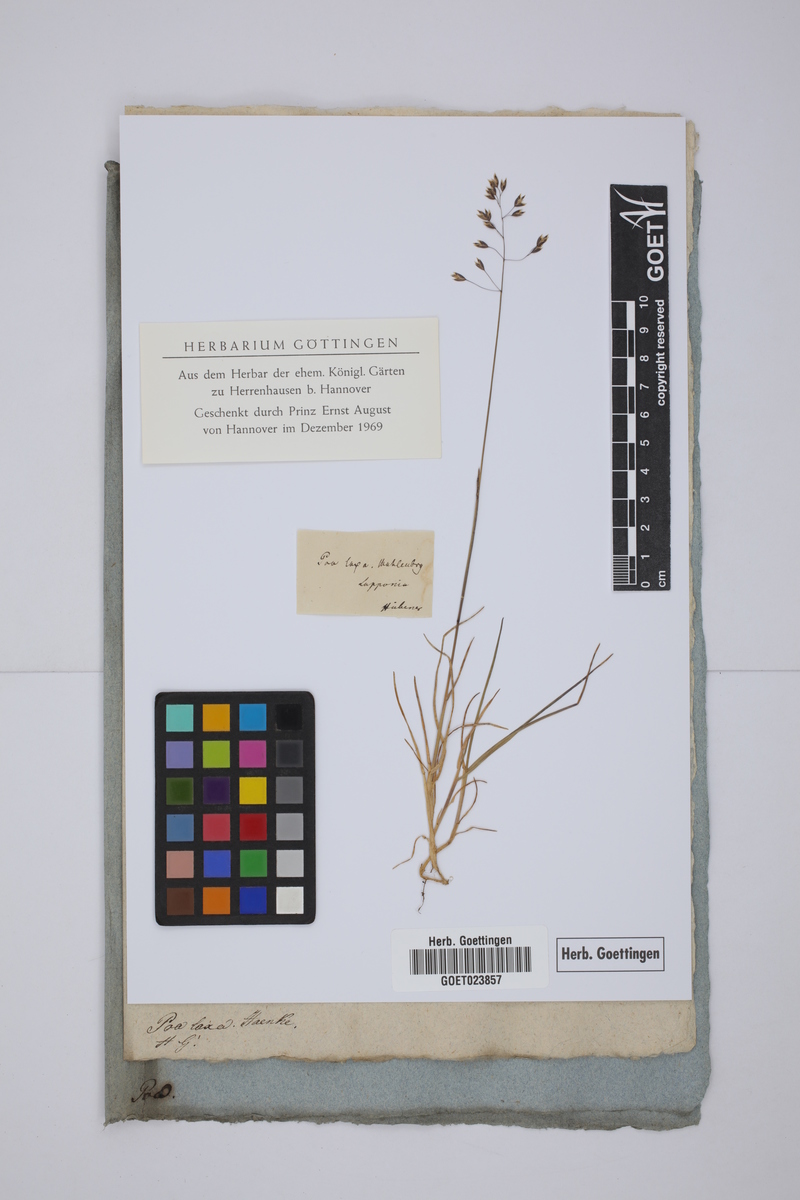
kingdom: Plantae
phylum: Tracheophyta
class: Liliopsida
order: Poales
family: Poaceae
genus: Poa
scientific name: Poa laxa
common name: Lax bluegrass
